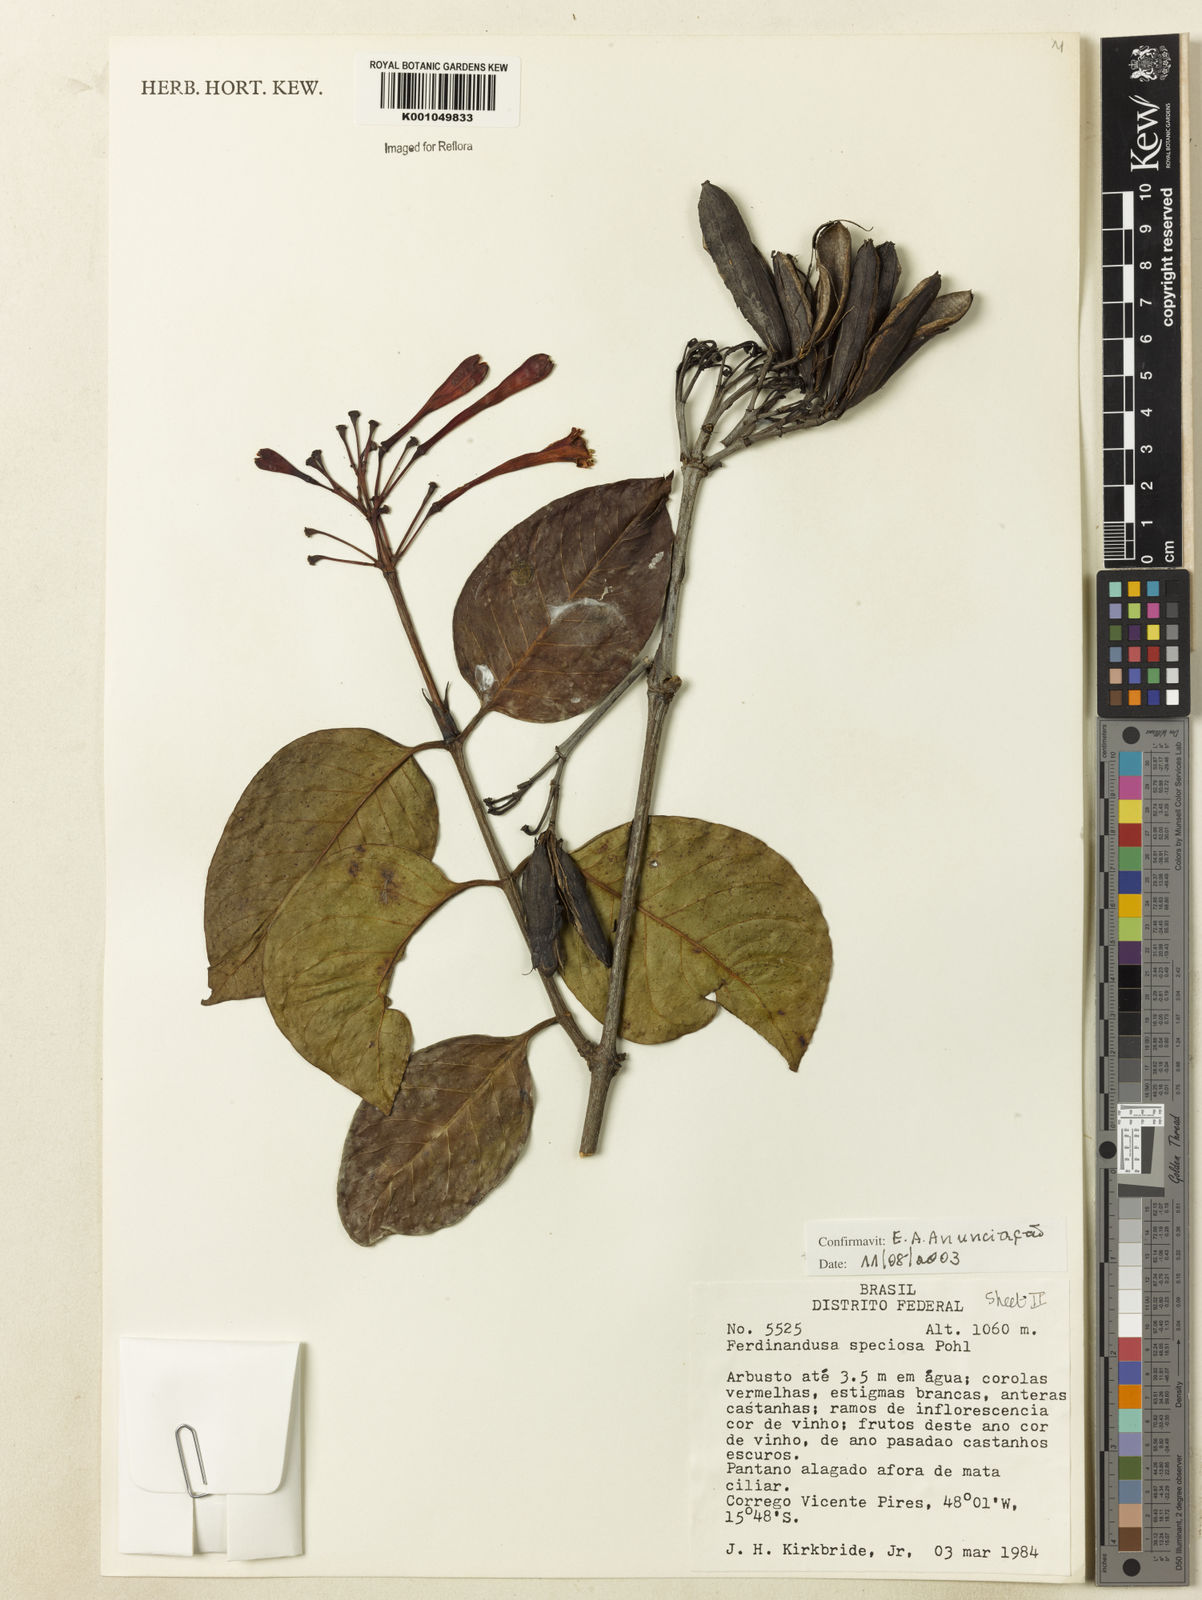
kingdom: Plantae
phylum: Tracheophyta
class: Magnoliopsida
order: Gentianales
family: Rubiaceae
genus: Ferdinandusa
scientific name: Ferdinandusa speciosa
